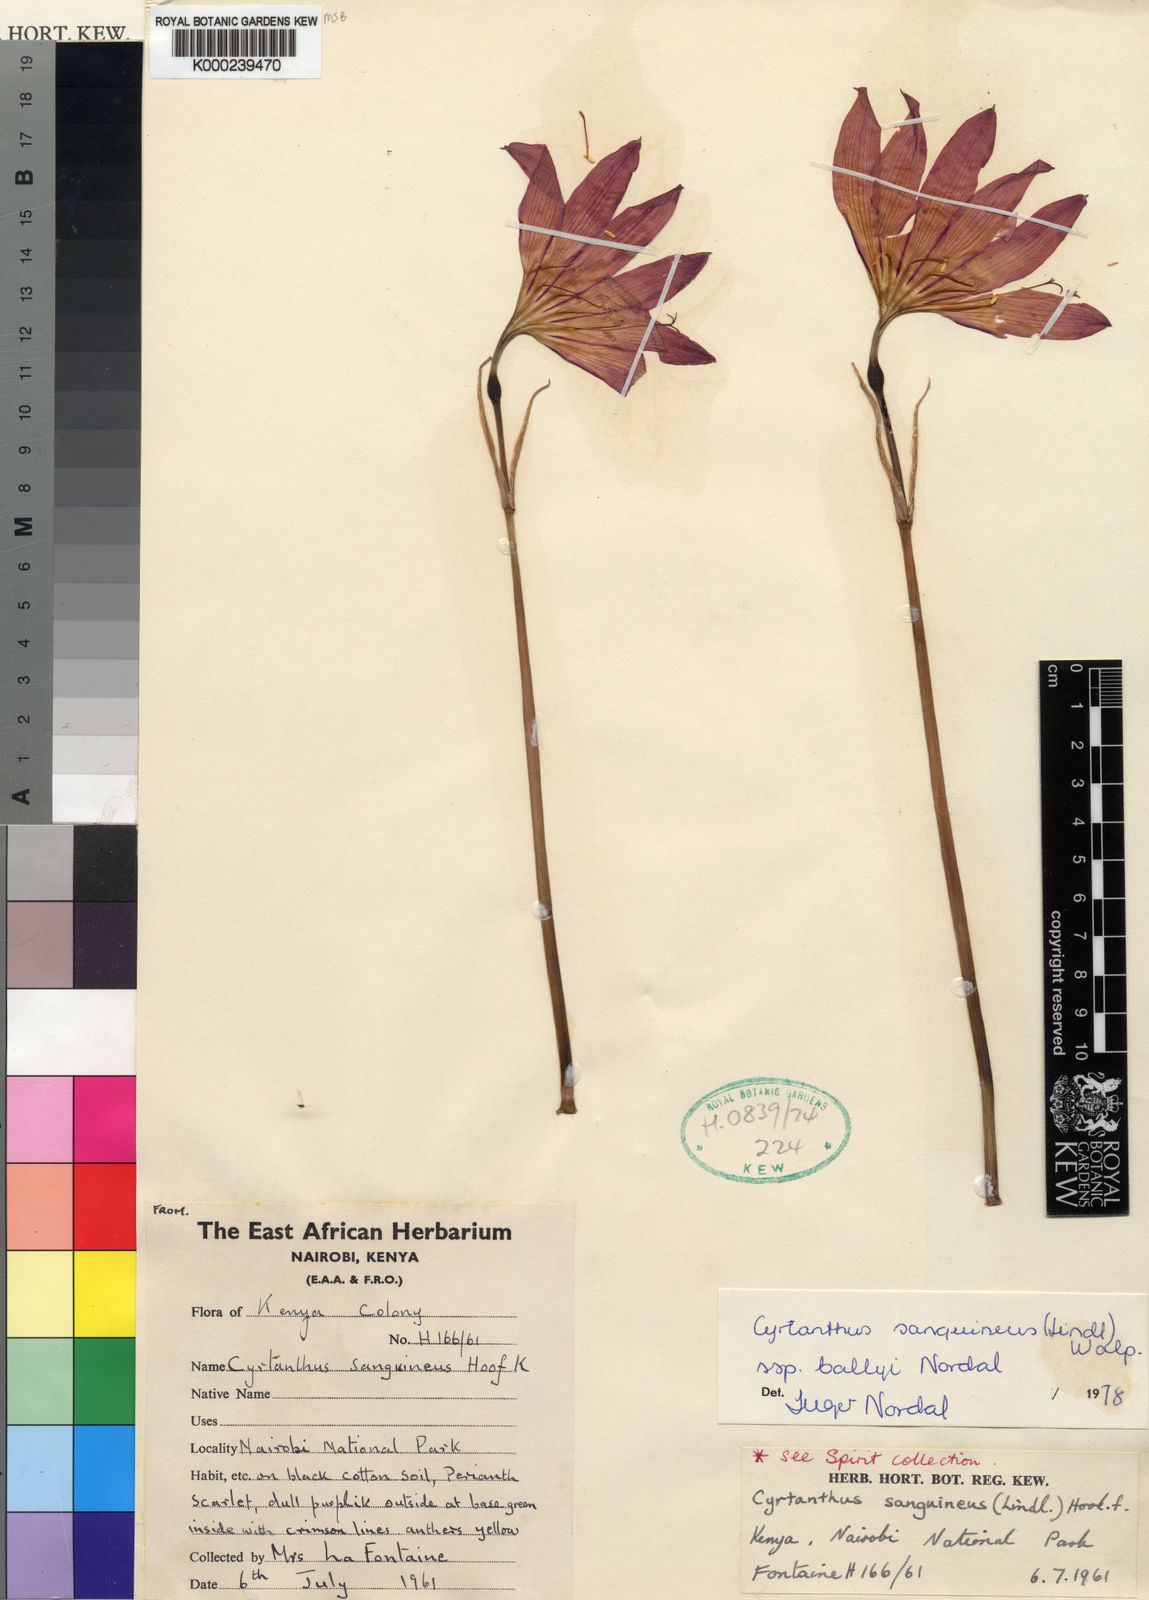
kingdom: Plantae
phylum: Tracheophyta
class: Liliopsida
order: Asparagales
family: Amaryllidaceae
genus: Cyrtanthus
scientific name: Cyrtanthus sanguineus
